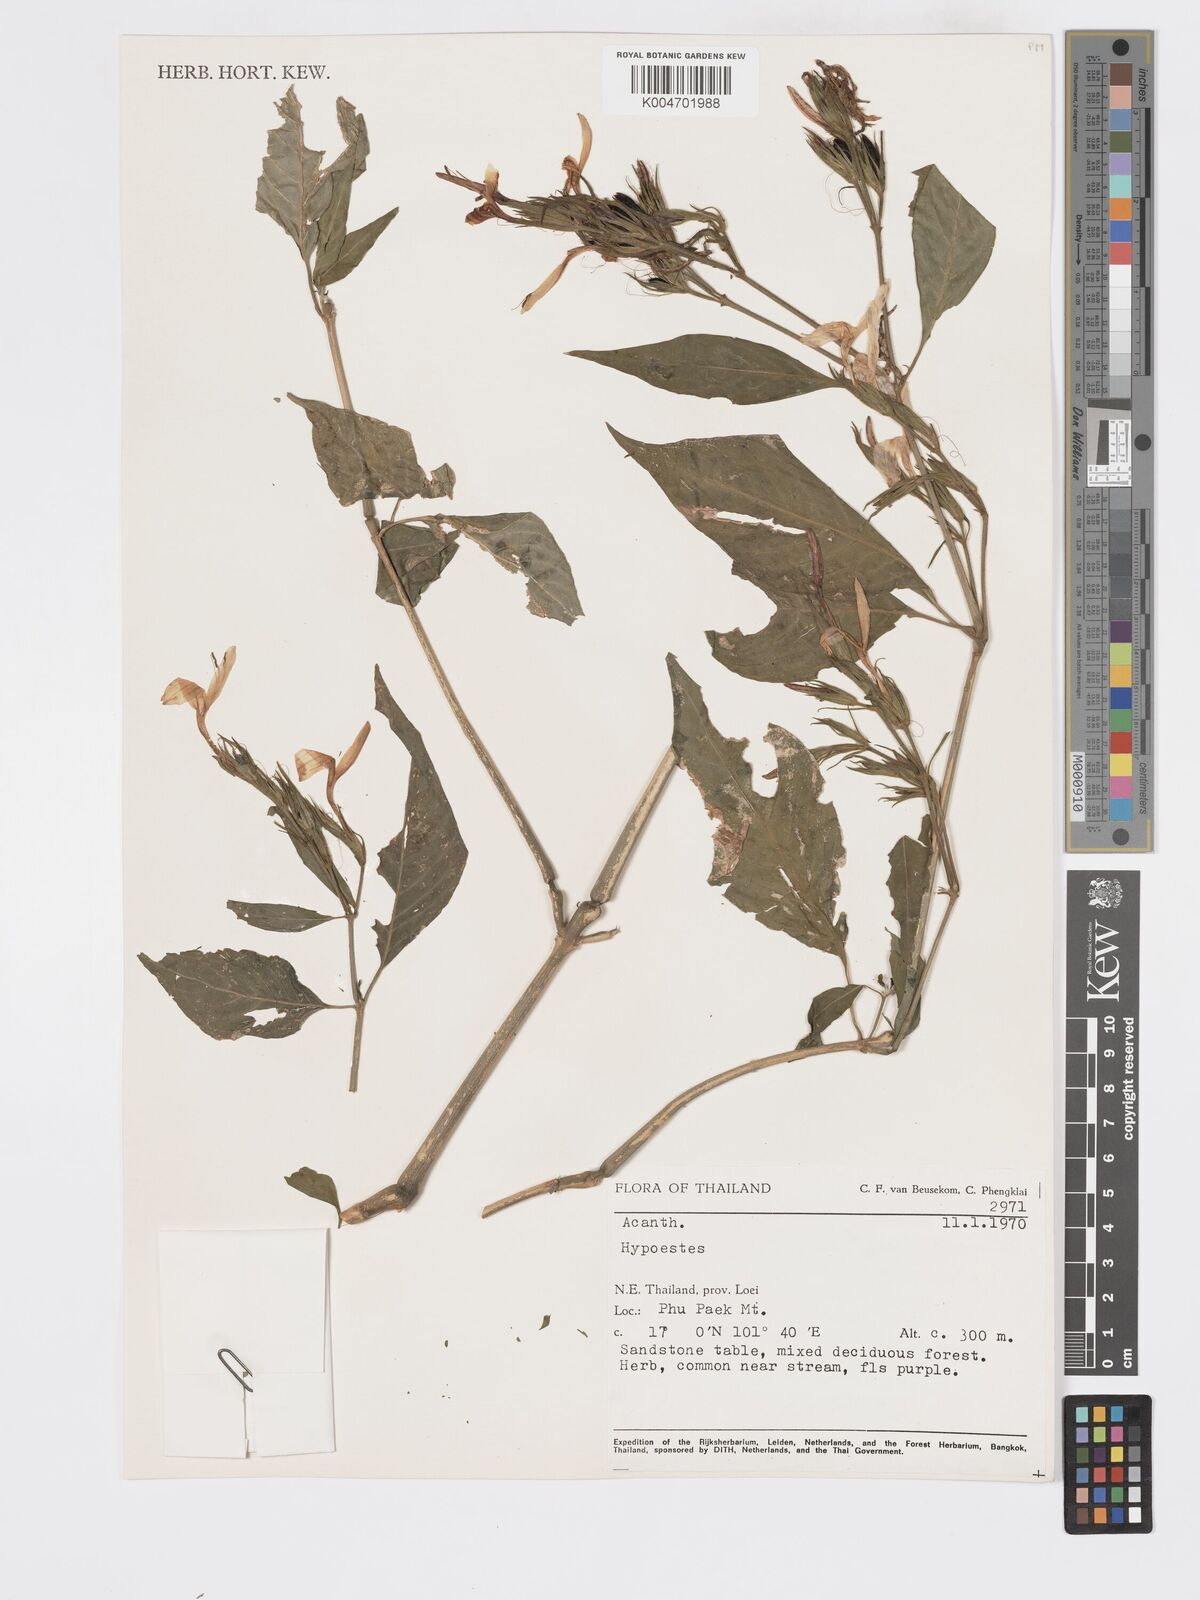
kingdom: Plantae
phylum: Tracheophyta
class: Magnoliopsida
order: Lamiales
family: Acanthaceae
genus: Dicliptera
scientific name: Dicliptera lanceolaria
